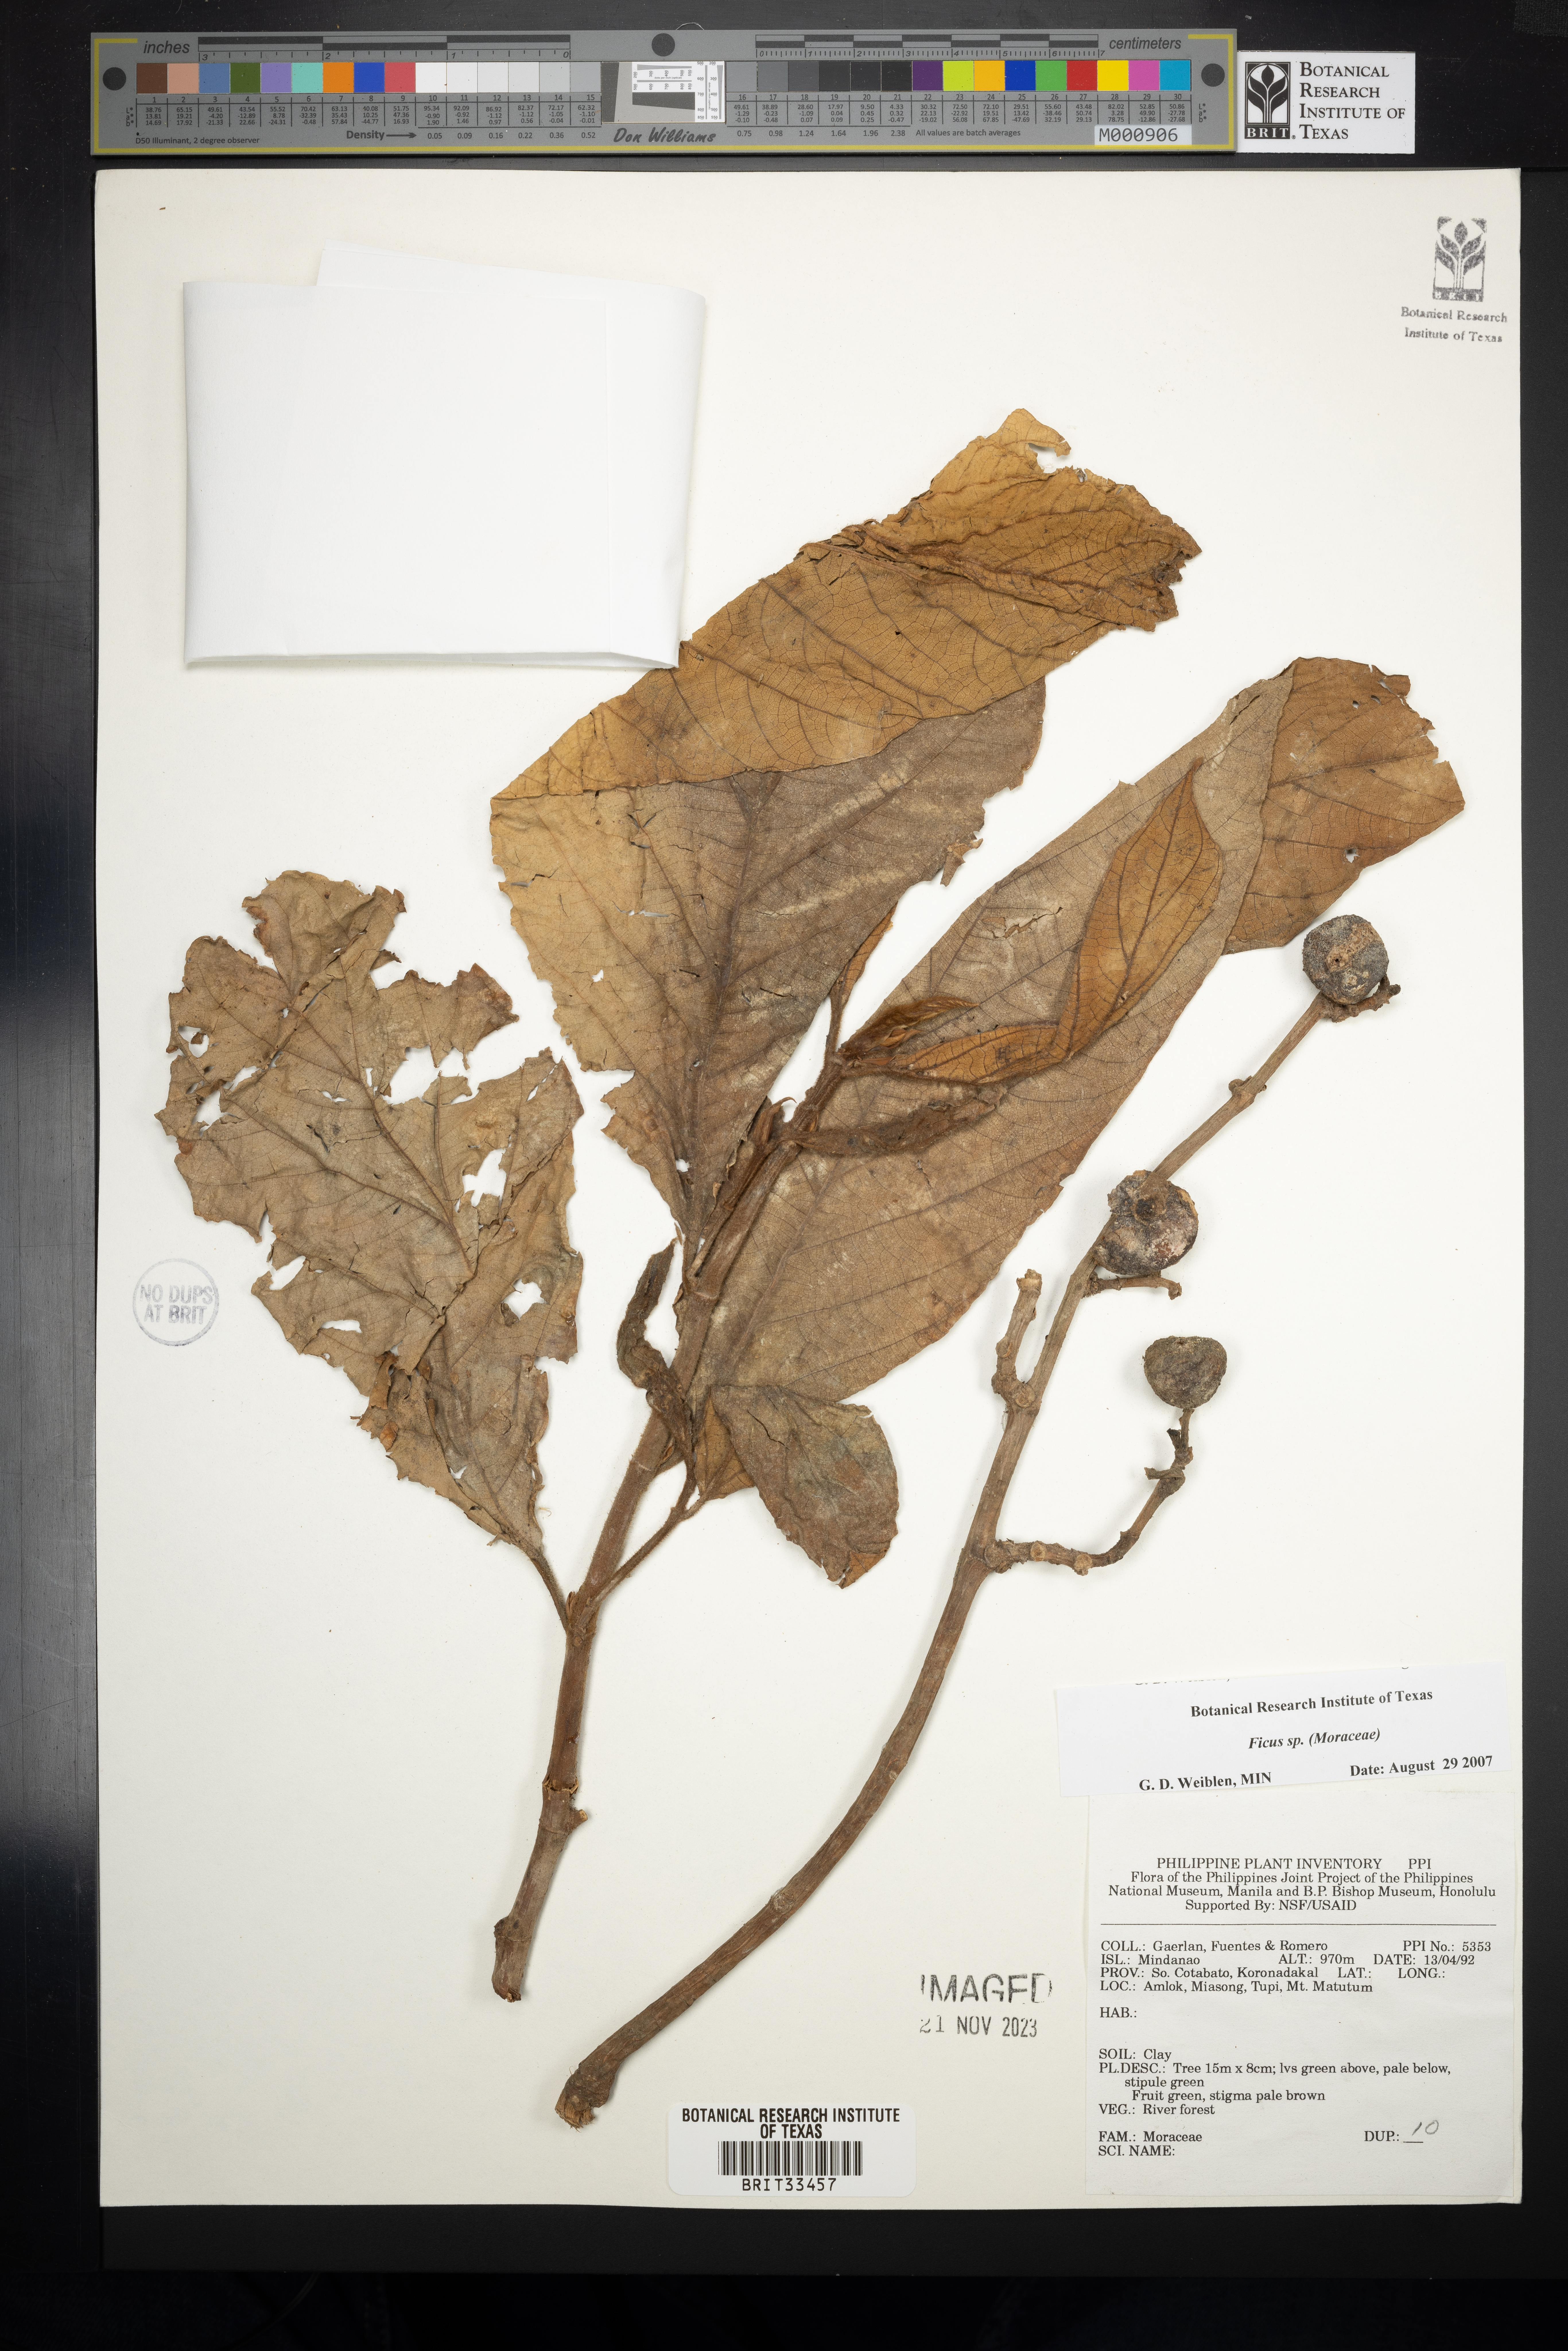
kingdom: Plantae
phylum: Tracheophyta
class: Magnoliopsida
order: Rosales
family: Moraceae
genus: Ficus
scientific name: Ficus
